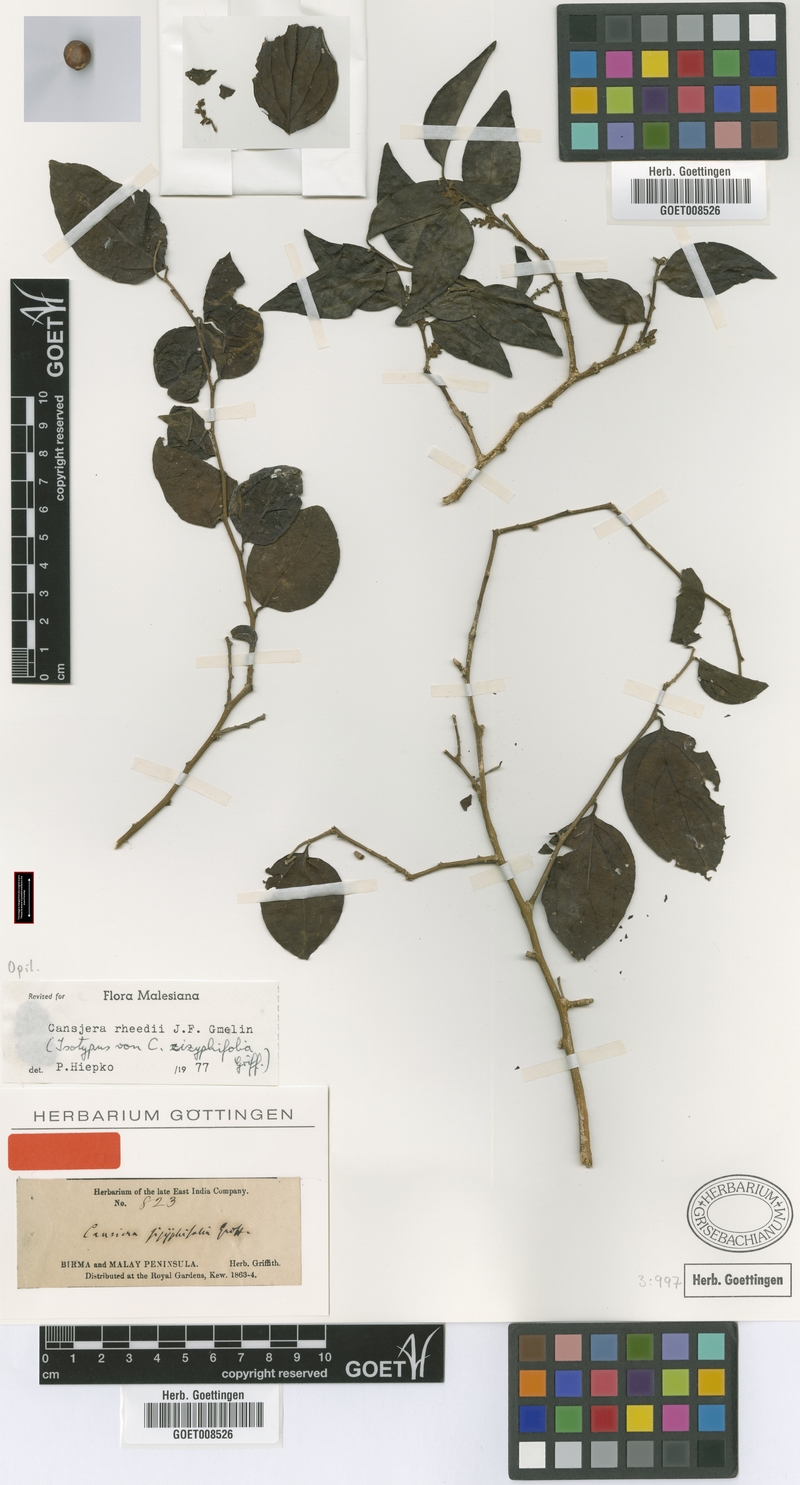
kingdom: Plantae
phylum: Tracheophyta
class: Magnoliopsida
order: Santalales
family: Opiliaceae
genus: Cansjera
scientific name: Cansjera rheedei
